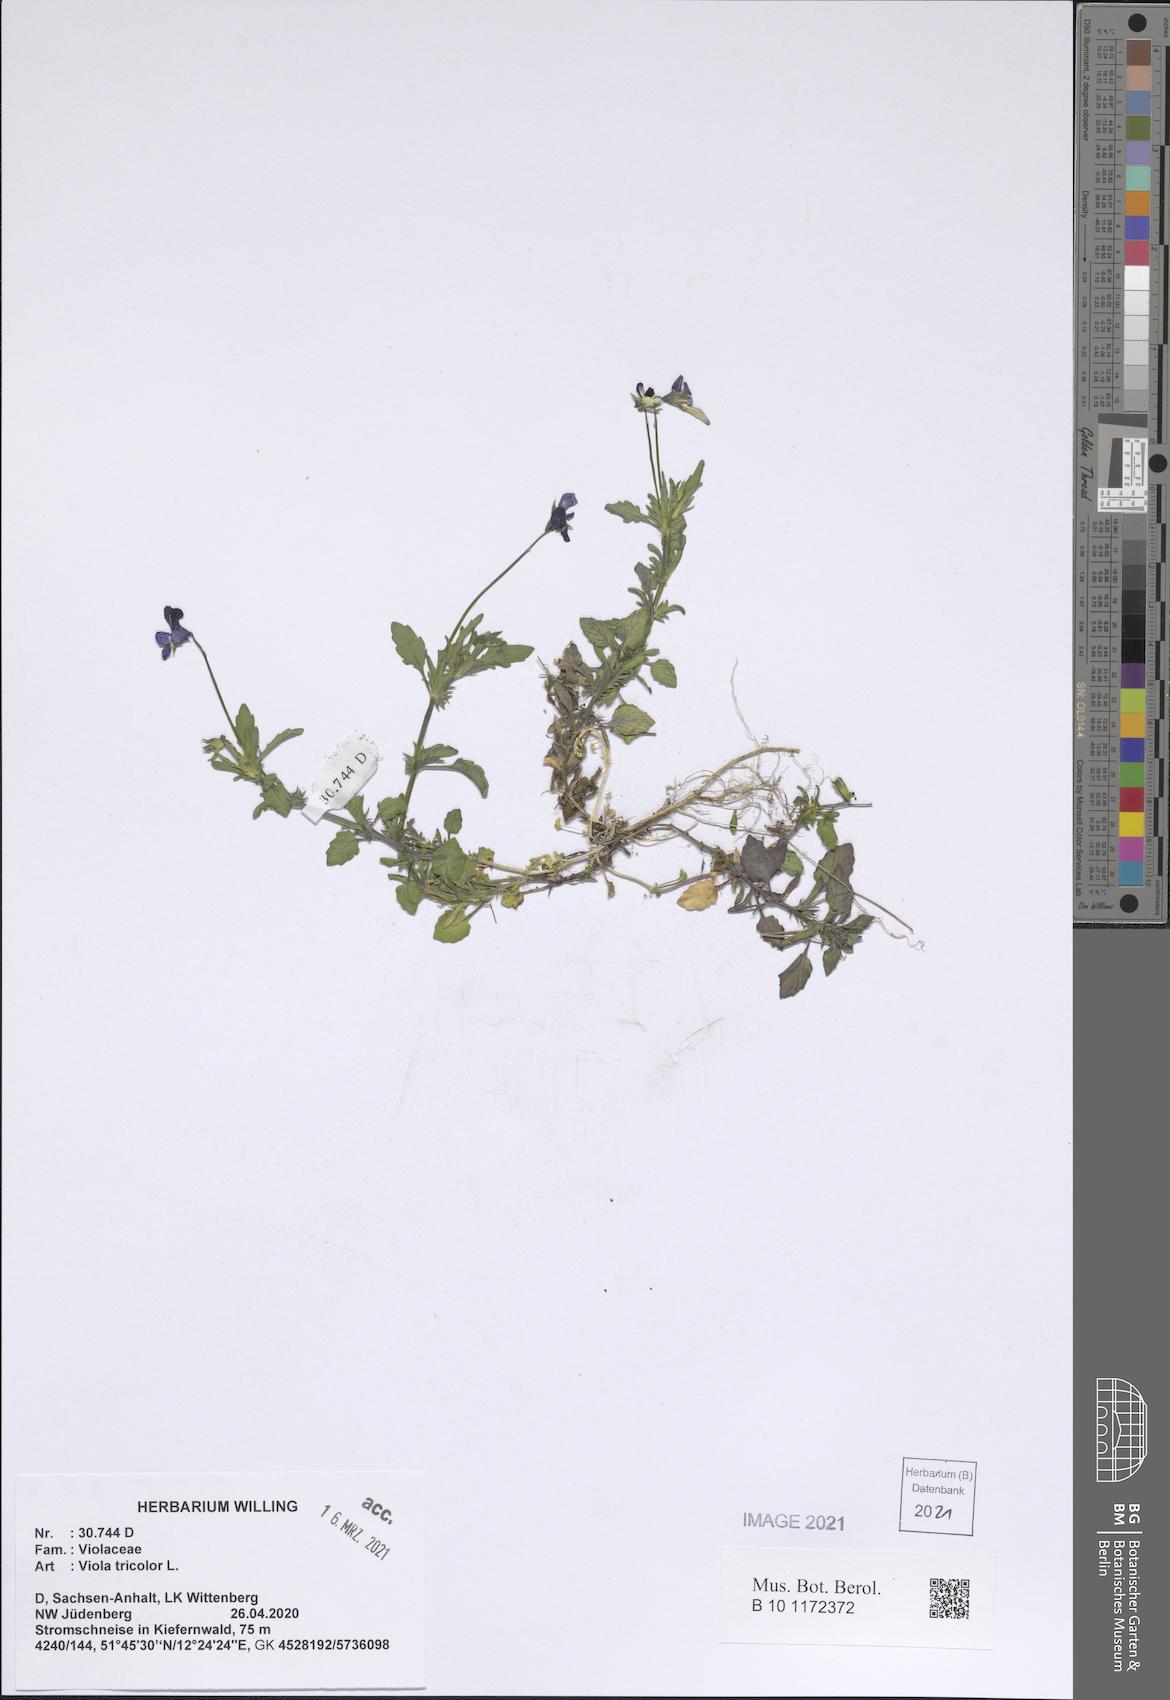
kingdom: Plantae
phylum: Tracheophyta
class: Magnoliopsida
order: Malpighiales
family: Violaceae
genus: Viola
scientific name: Viola tricolor
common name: Pansy
